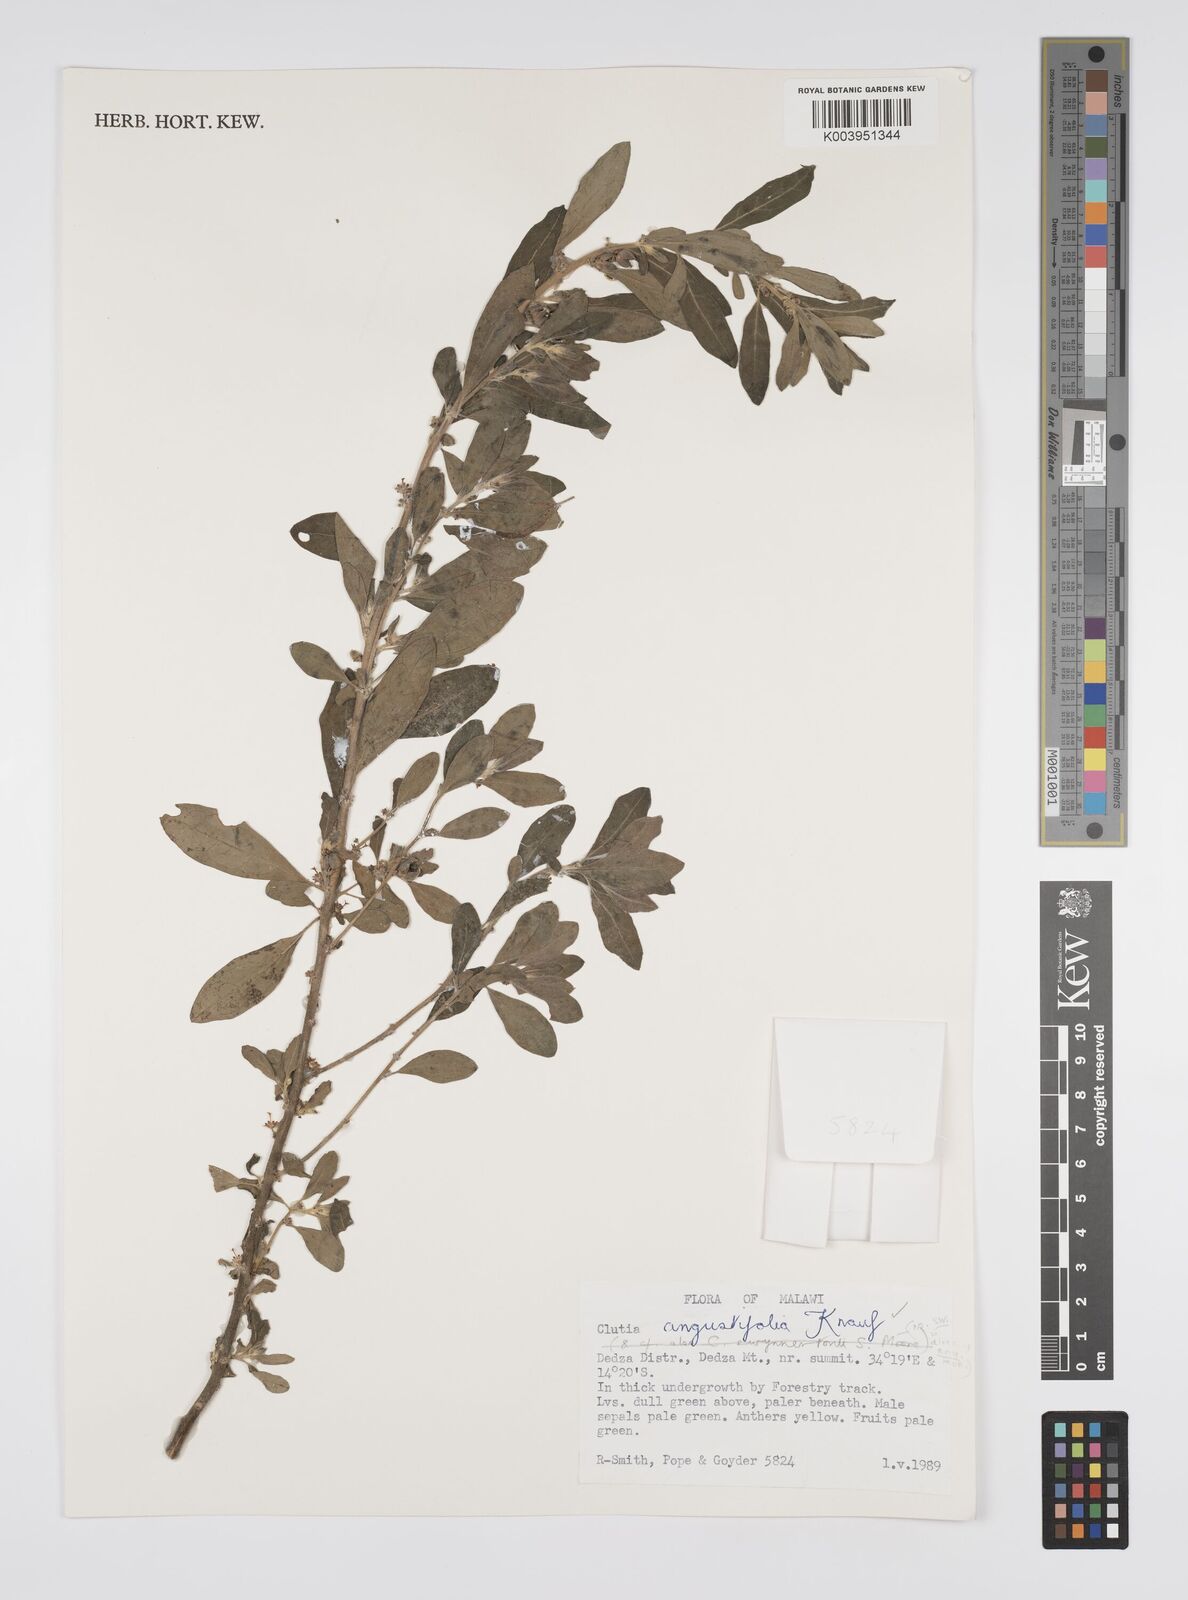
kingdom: Plantae
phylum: Tracheophyta
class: Magnoliopsida
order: Malpighiales
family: Peraceae
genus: Clutia
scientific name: Clutia angustifolia
